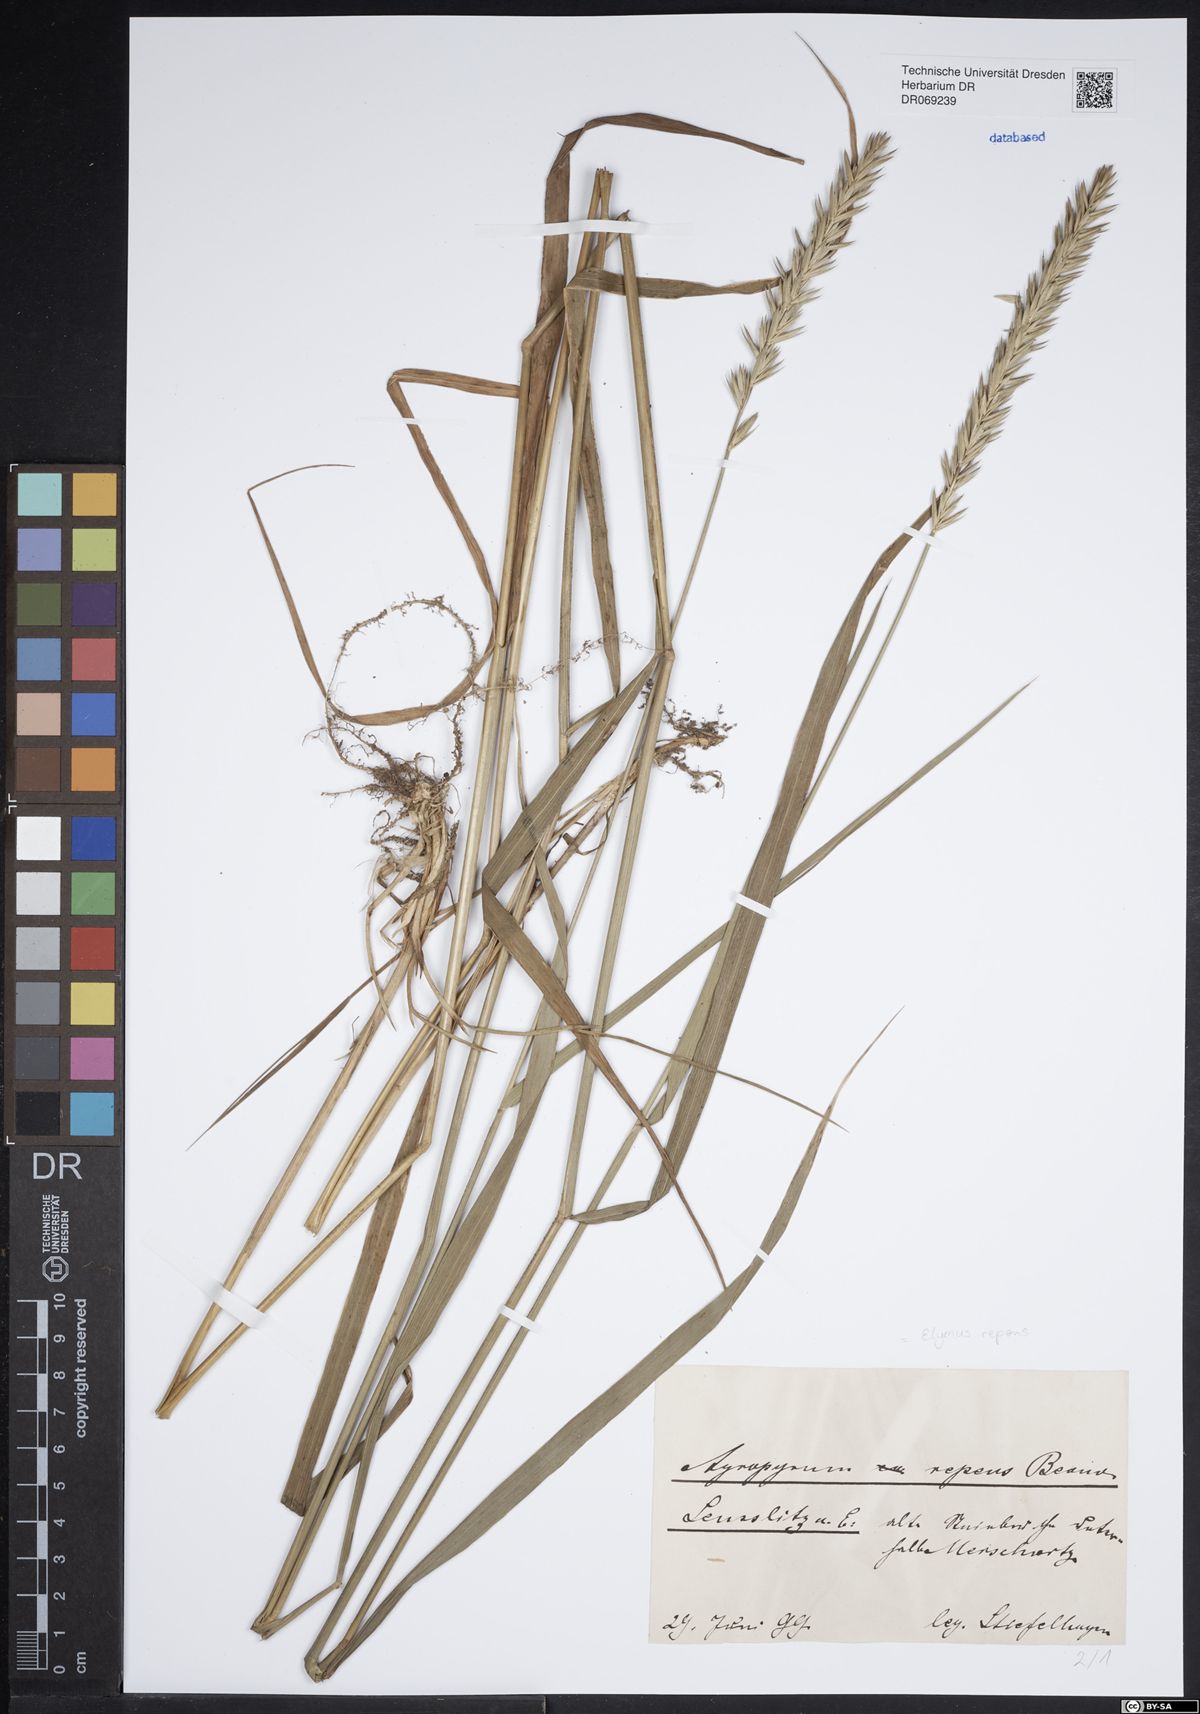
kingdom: Plantae
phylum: Tracheophyta
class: Liliopsida
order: Poales
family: Poaceae
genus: Elymus
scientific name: Elymus repens
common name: Quackgrass
